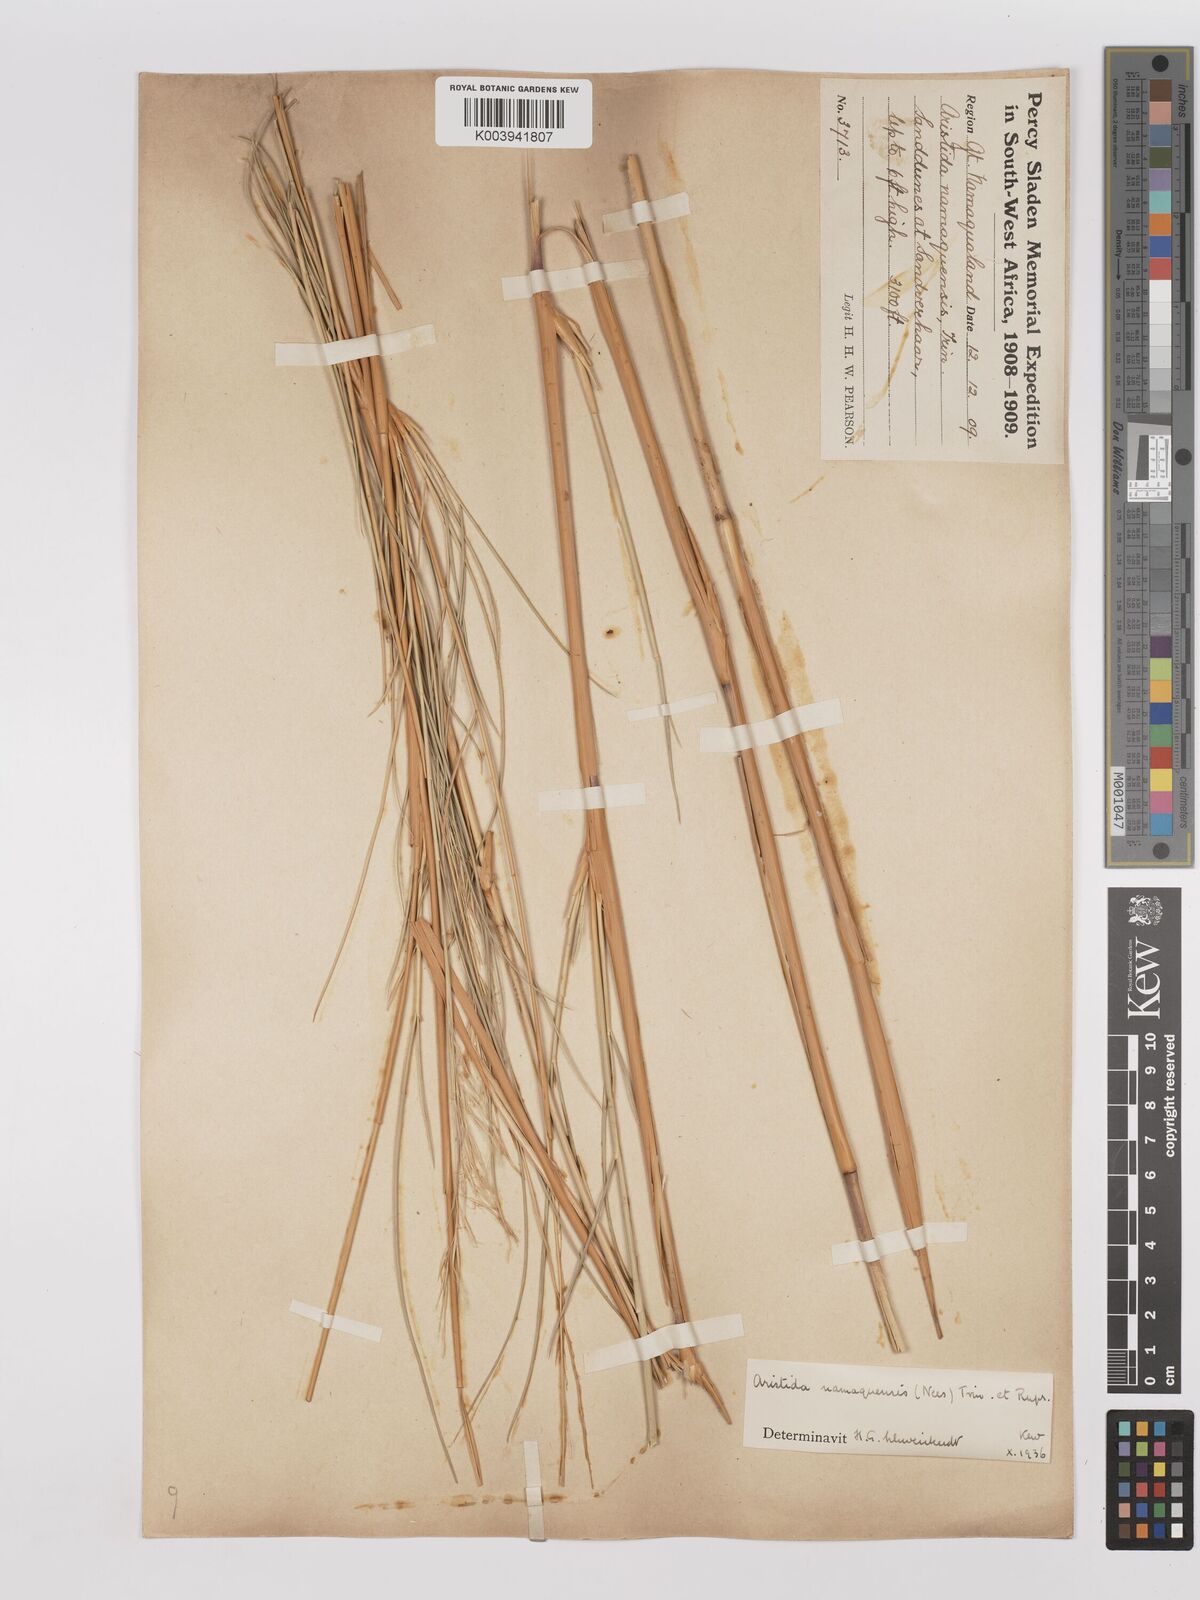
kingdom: Plantae
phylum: Tracheophyta
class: Liliopsida
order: Poales
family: Poaceae
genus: Stipagrostis
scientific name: Stipagrostis namaquensis
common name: River bushman grass
